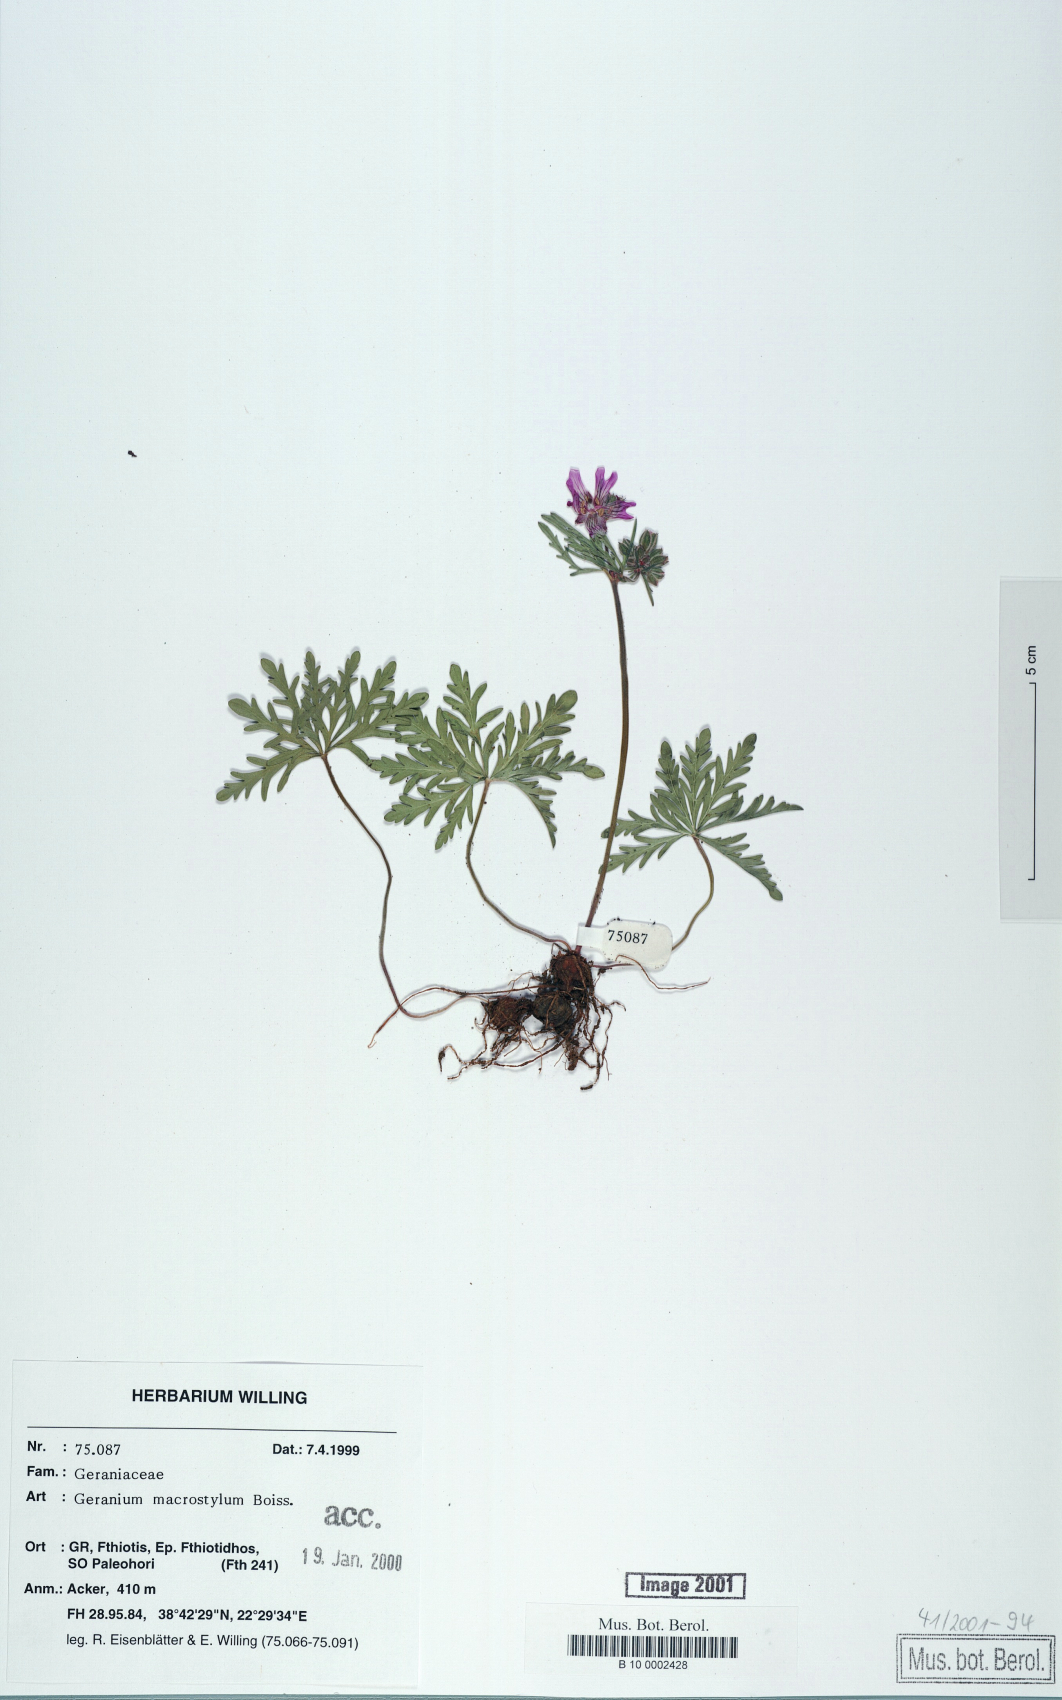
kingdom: Plantae
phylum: Tracheophyta
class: Magnoliopsida
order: Geraniales
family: Geraniaceae
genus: Geranium
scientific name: Geranium macrostylum
